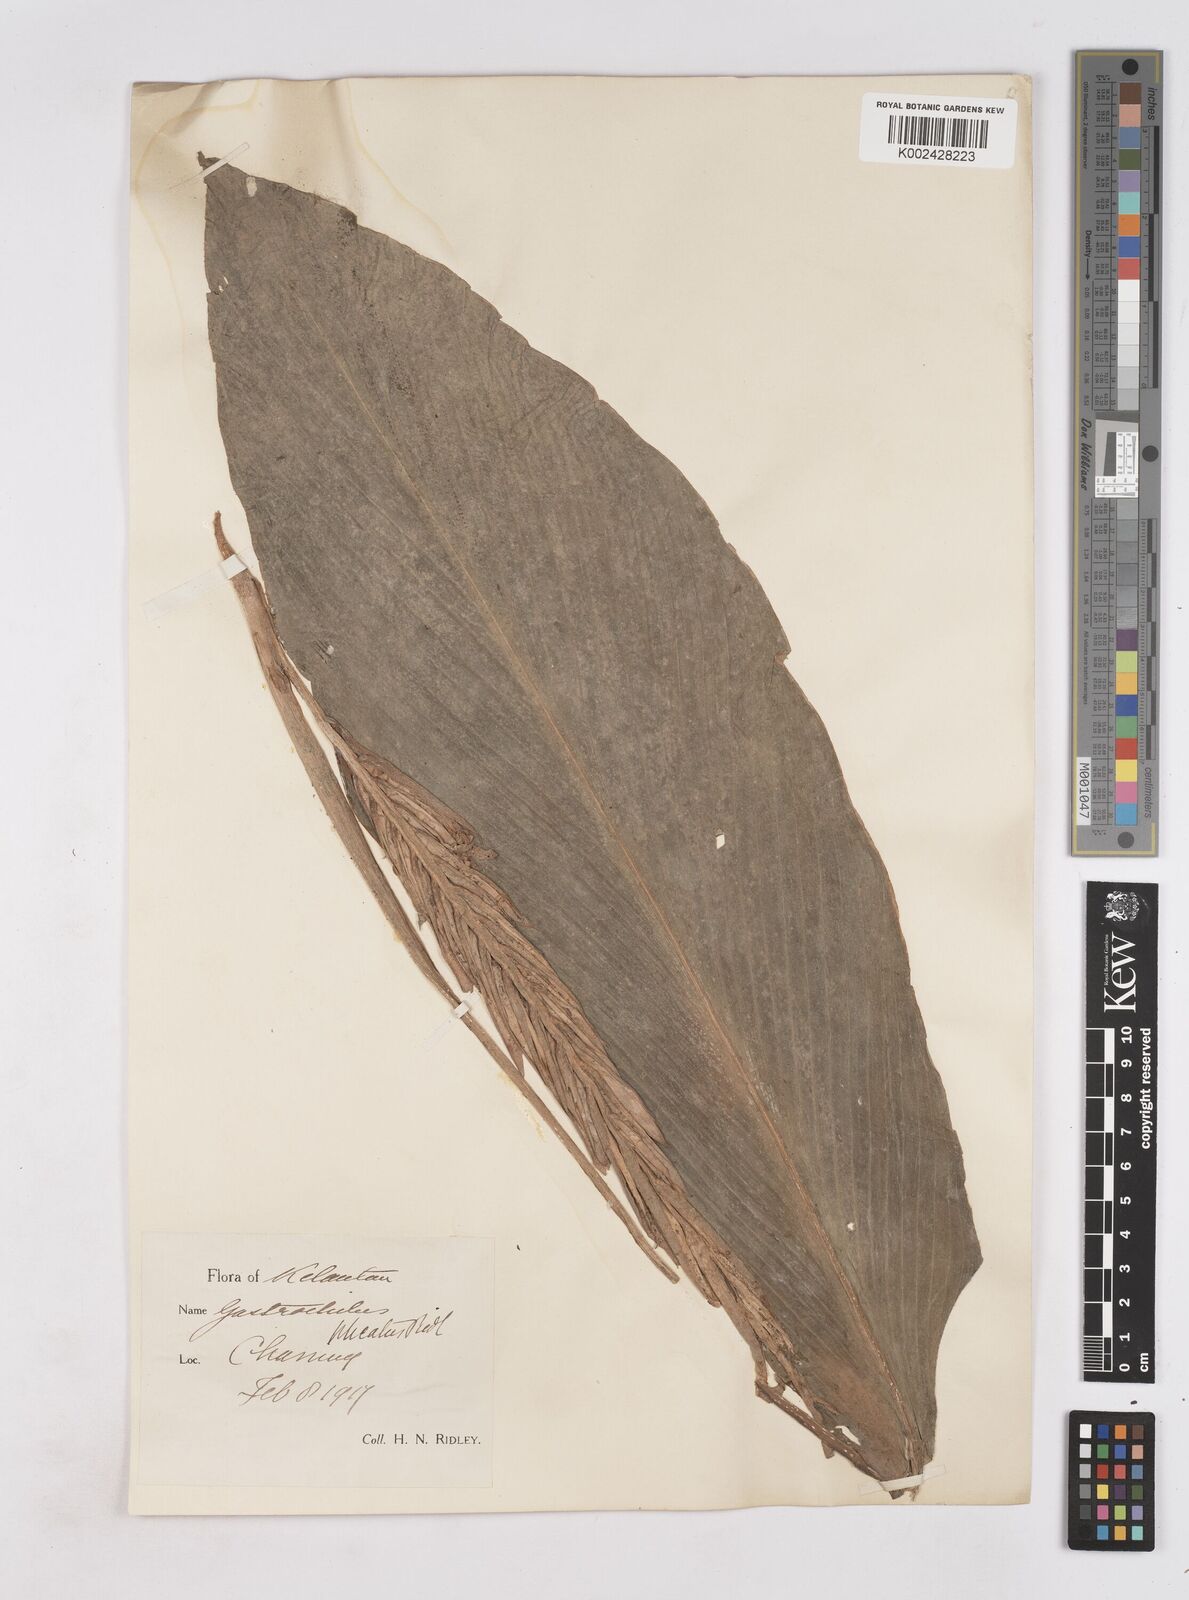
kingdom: Plantae
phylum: Tracheophyta
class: Liliopsida
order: Zingiberales
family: Zingiberaceae
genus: Boesenbergia
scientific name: Boesenbergia plicata
